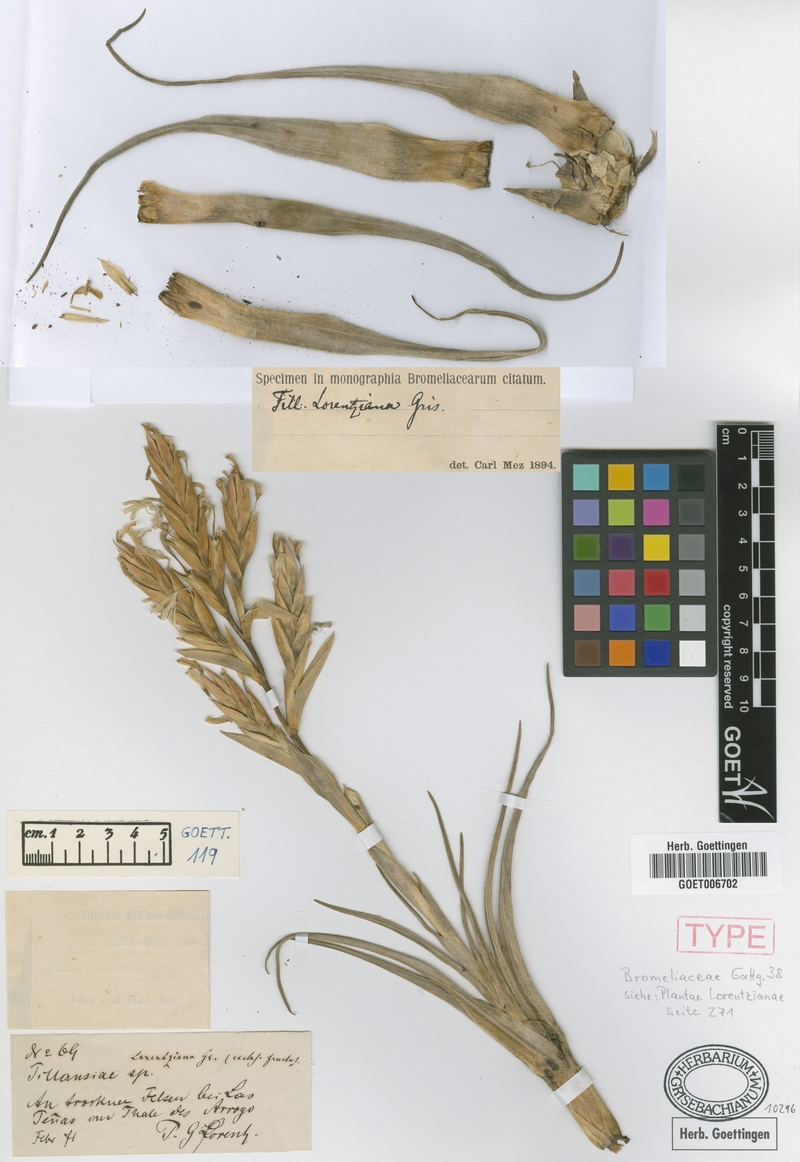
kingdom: Plantae
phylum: Tracheophyta
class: Liliopsida
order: Poales
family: Bromeliaceae
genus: Tillandsia
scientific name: Tillandsia lorentziana
